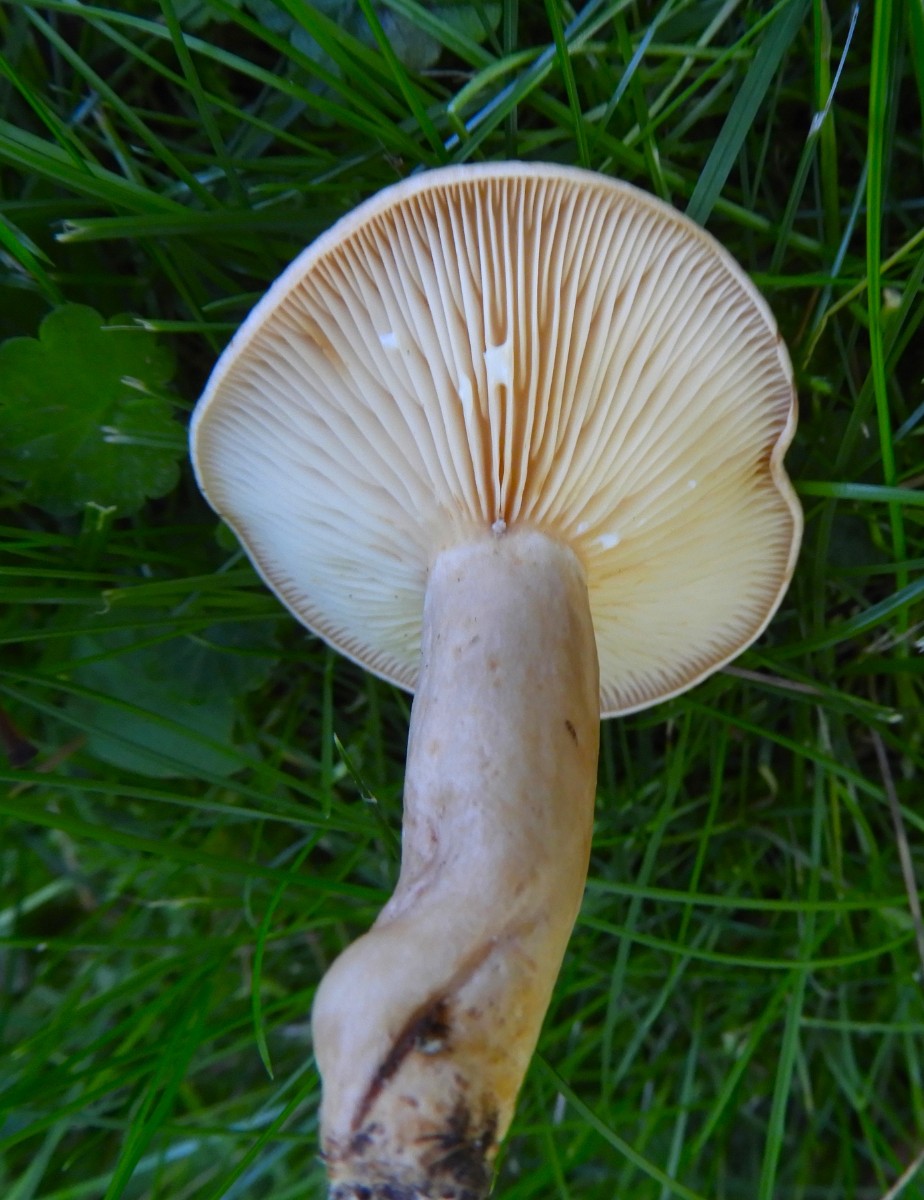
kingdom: Fungi
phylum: Basidiomycota
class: Agaricomycetes
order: Russulales
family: Russulaceae
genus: Lactarius
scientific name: Lactarius pyrogalus
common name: hassel-mælkehat
